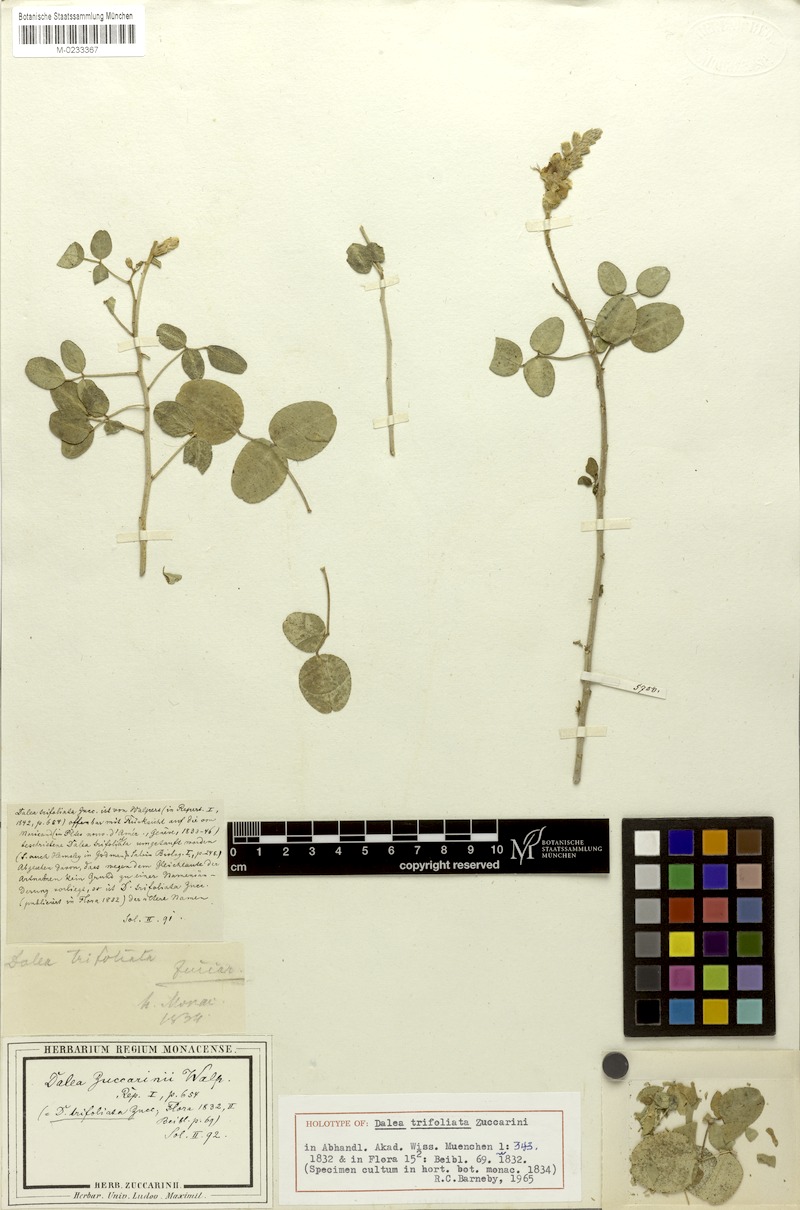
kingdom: Plantae
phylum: Tracheophyta
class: Magnoliopsida
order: Fabales
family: Fabaceae
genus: Dalea
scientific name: Dalea trifoliata
